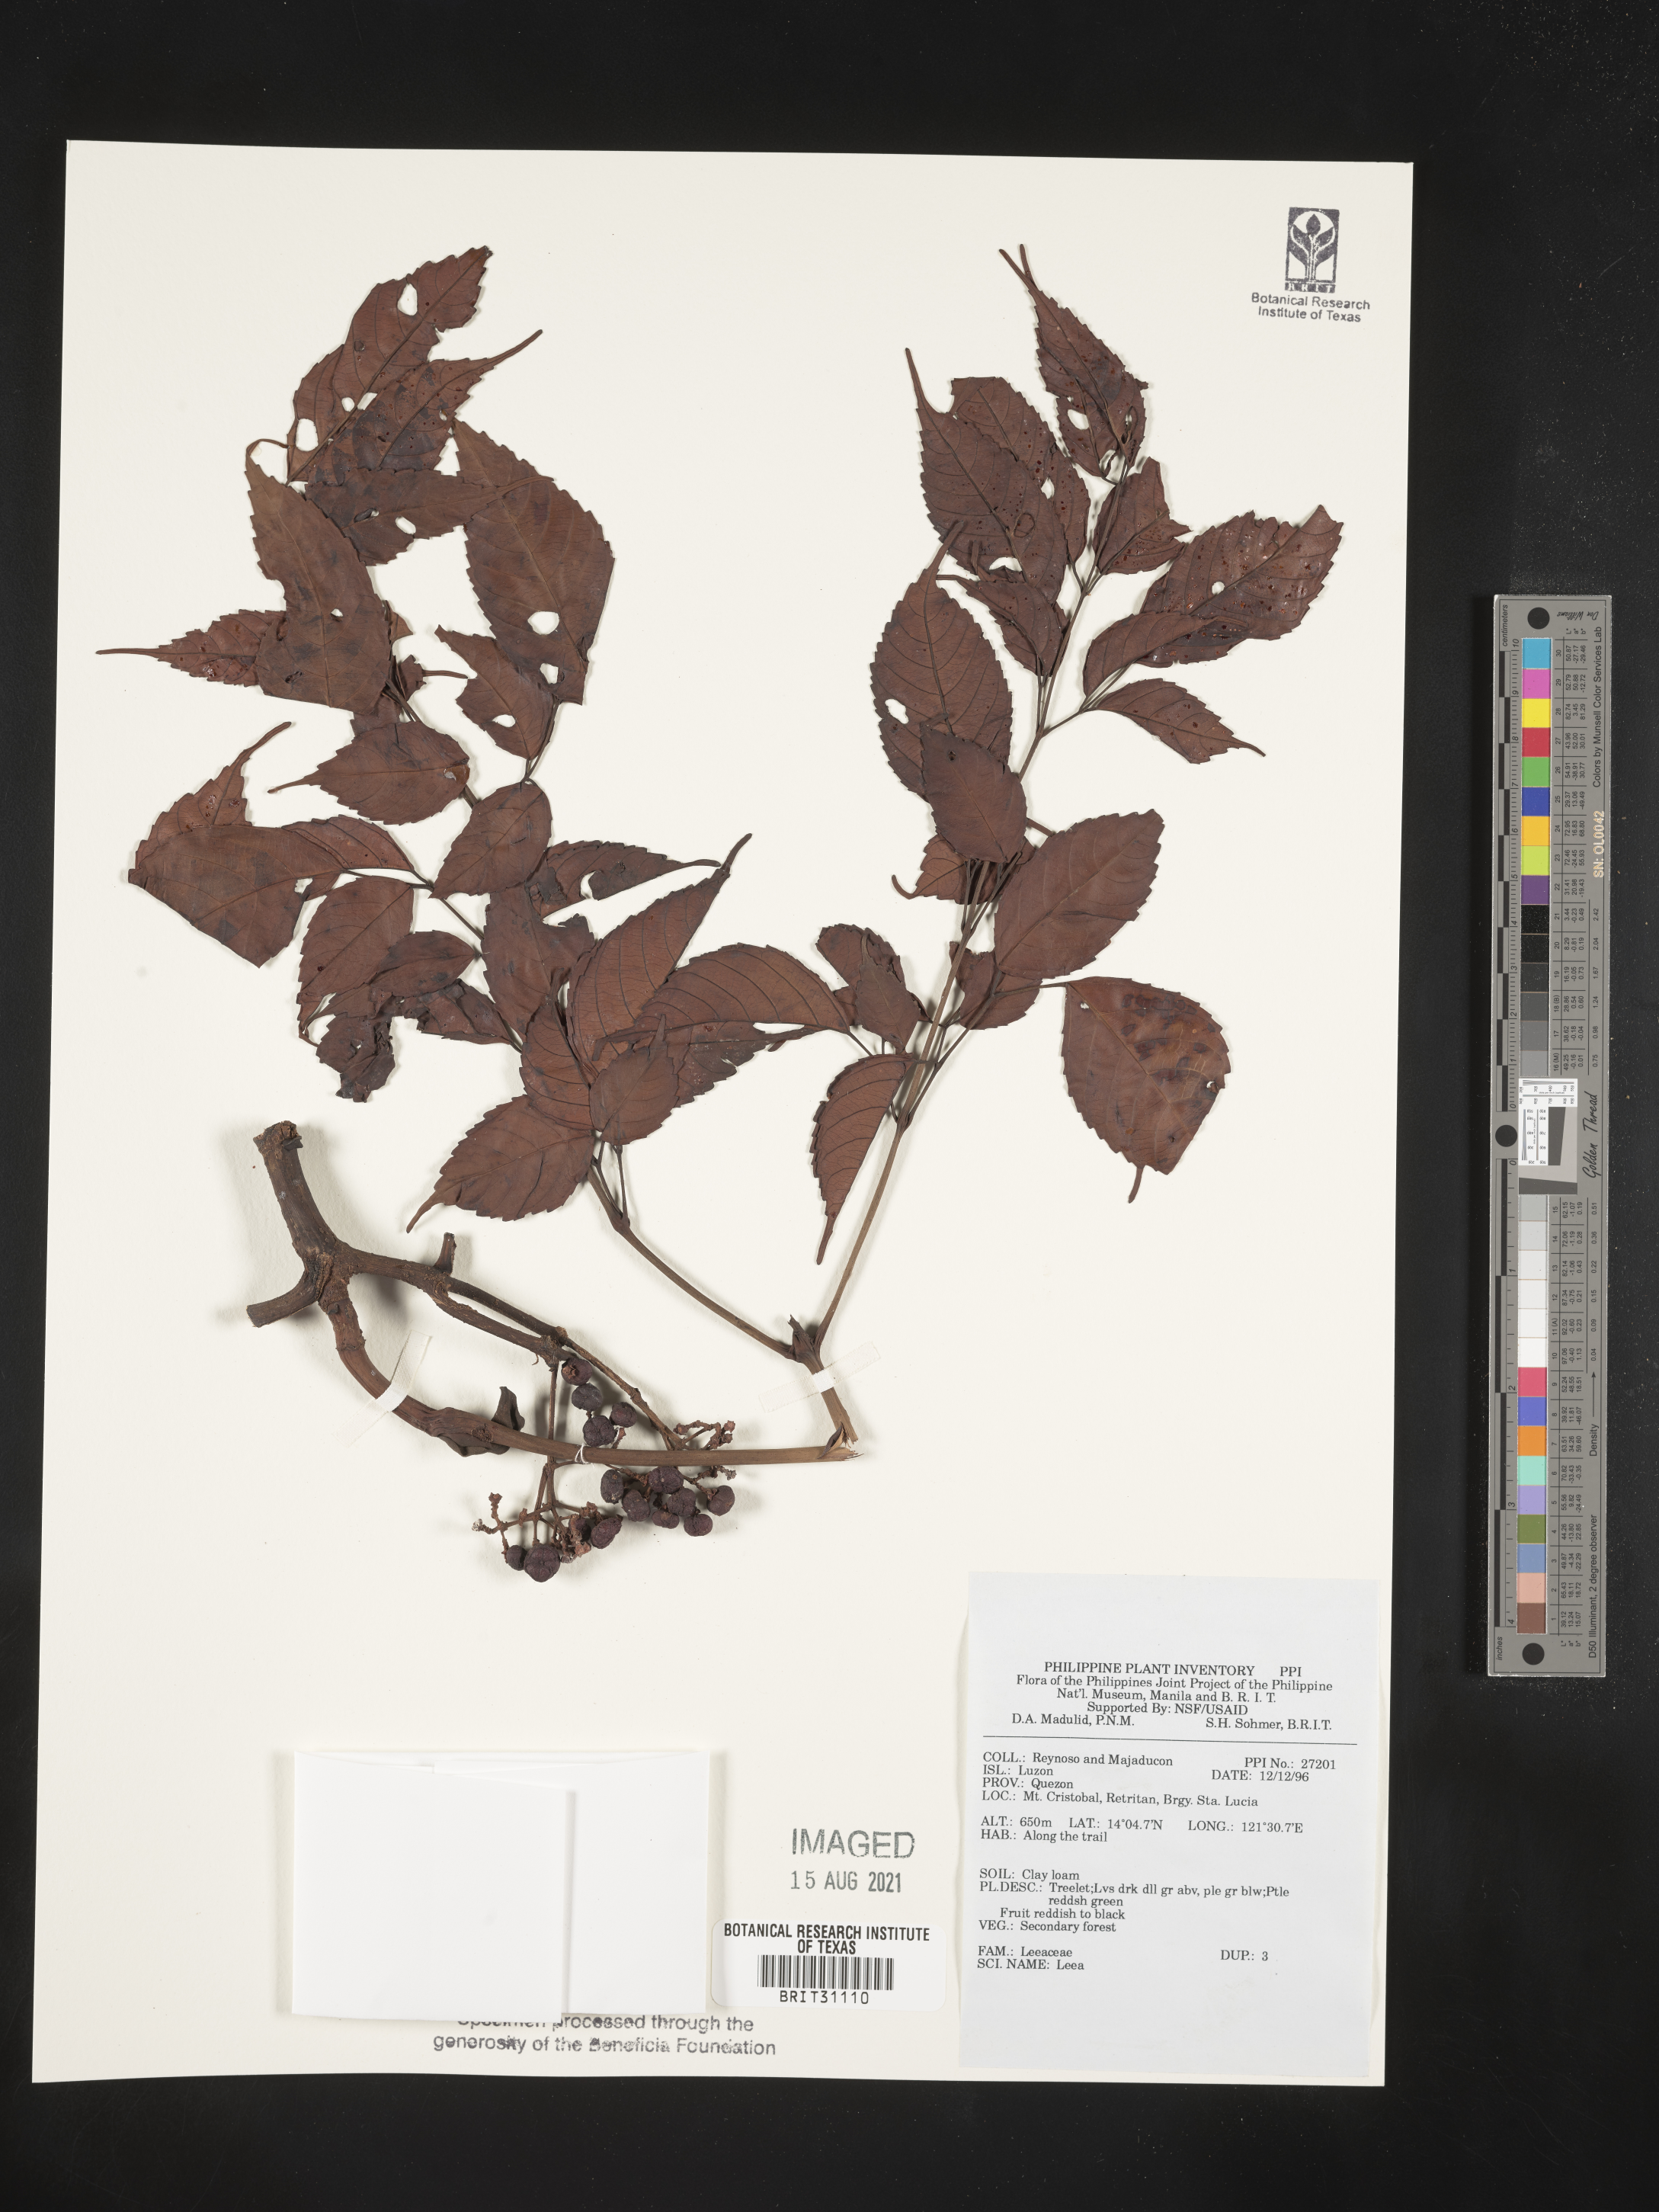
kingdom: Plantae
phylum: Tracheophyta
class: Magnoliopsida
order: Vitales
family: Vitaceae
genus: Leea
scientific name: Leea
